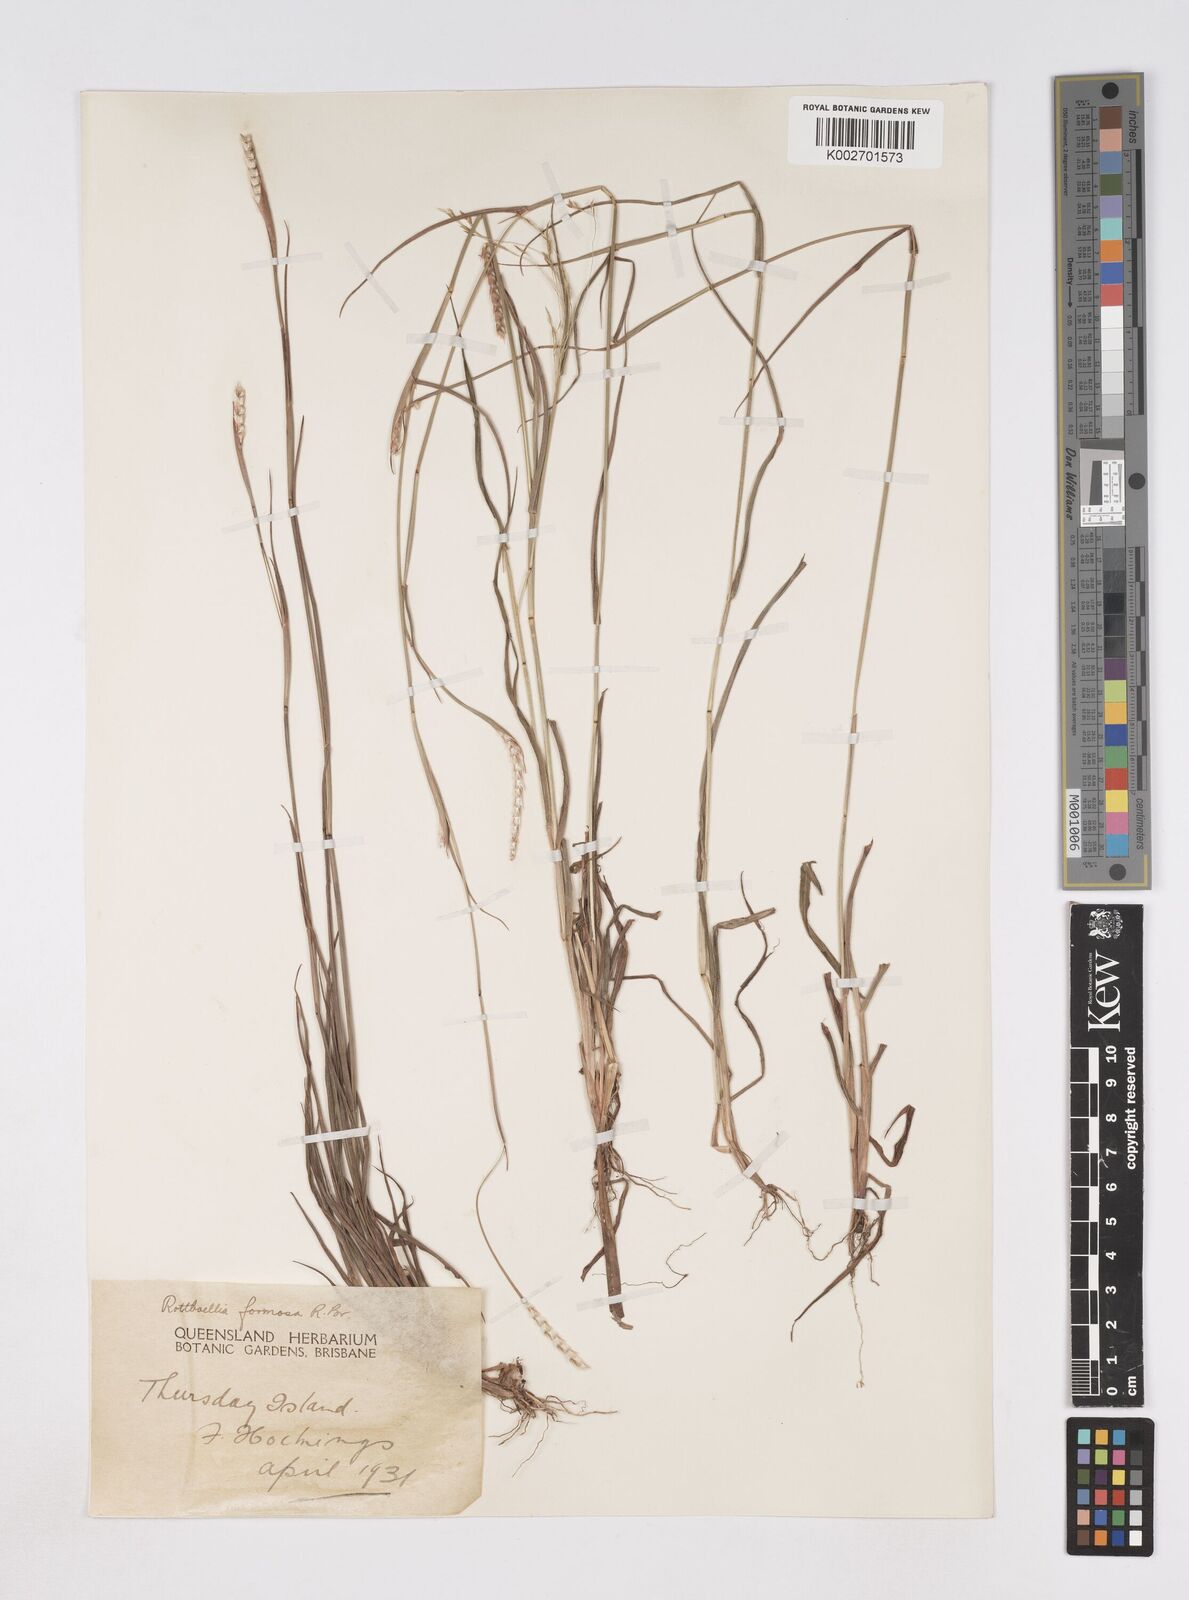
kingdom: Plantae
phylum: Tracheophyta
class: Liliopsida
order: Poales
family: Poaceae
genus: Heteropholis
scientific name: Heteropholis
